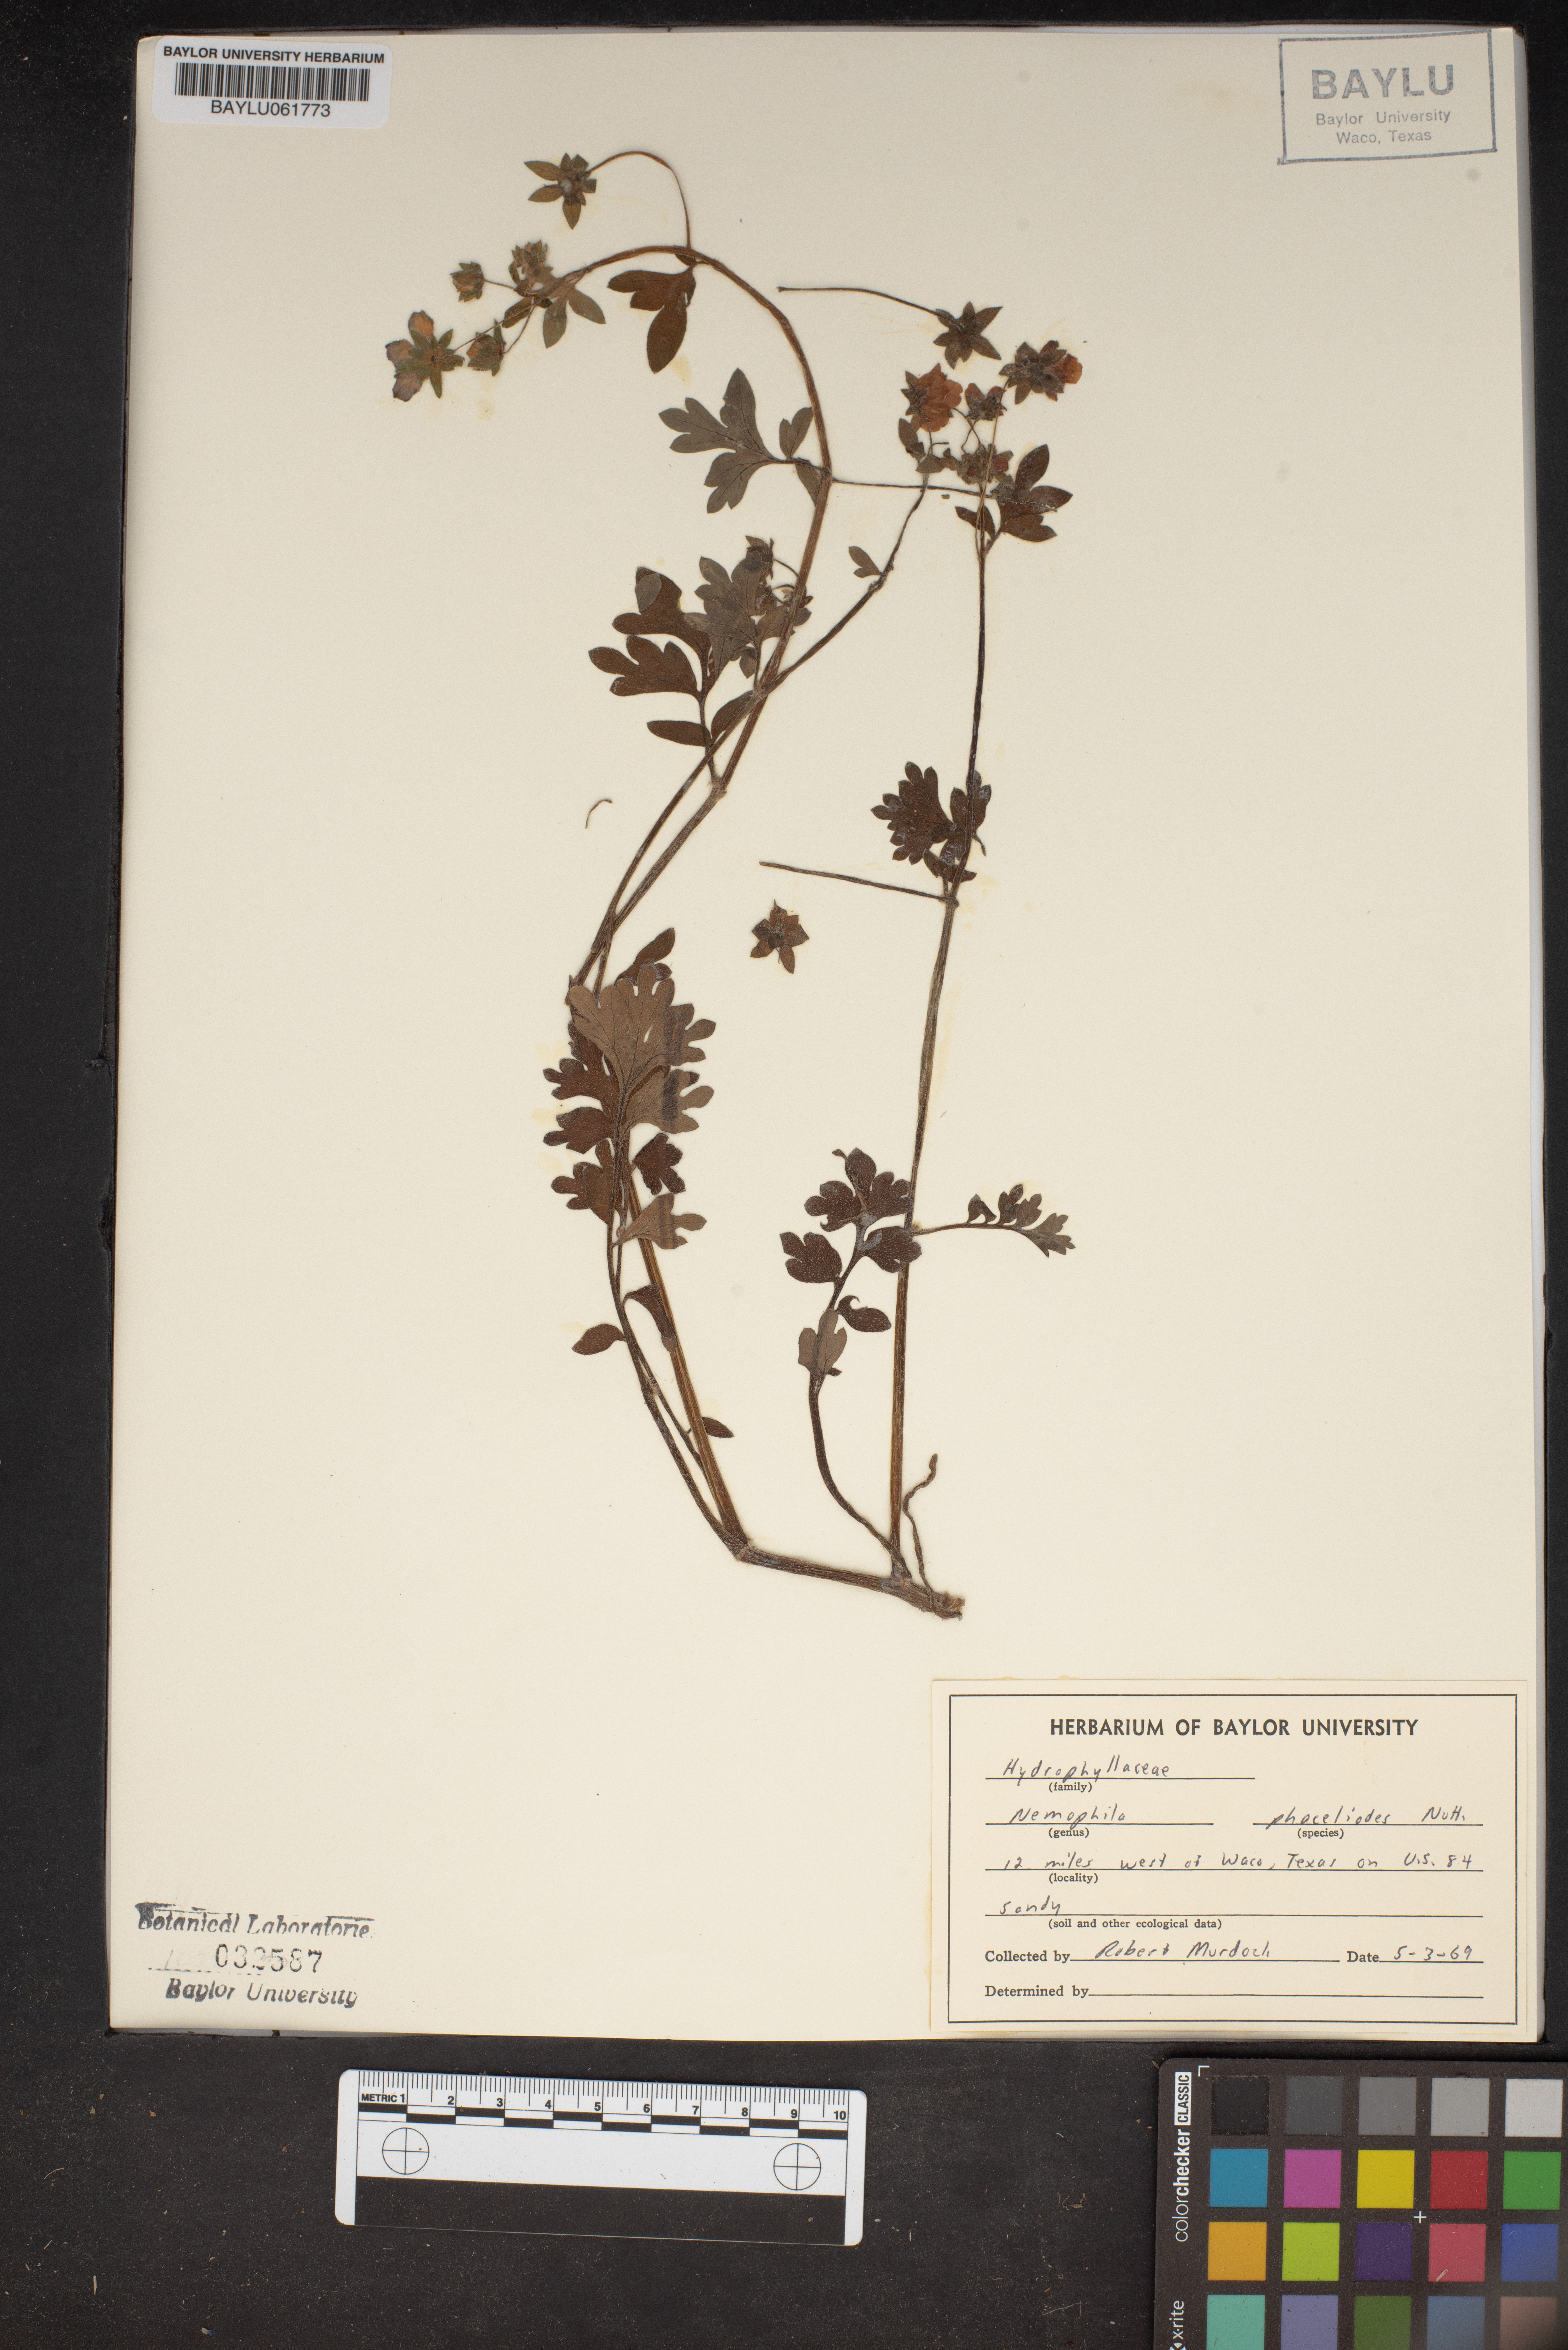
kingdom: Plantae
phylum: Tracheophyta
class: Magnoliopsida
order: Boraginales
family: Hydrophyllaceae
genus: Nemophila
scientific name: Nemophila phacelioides
